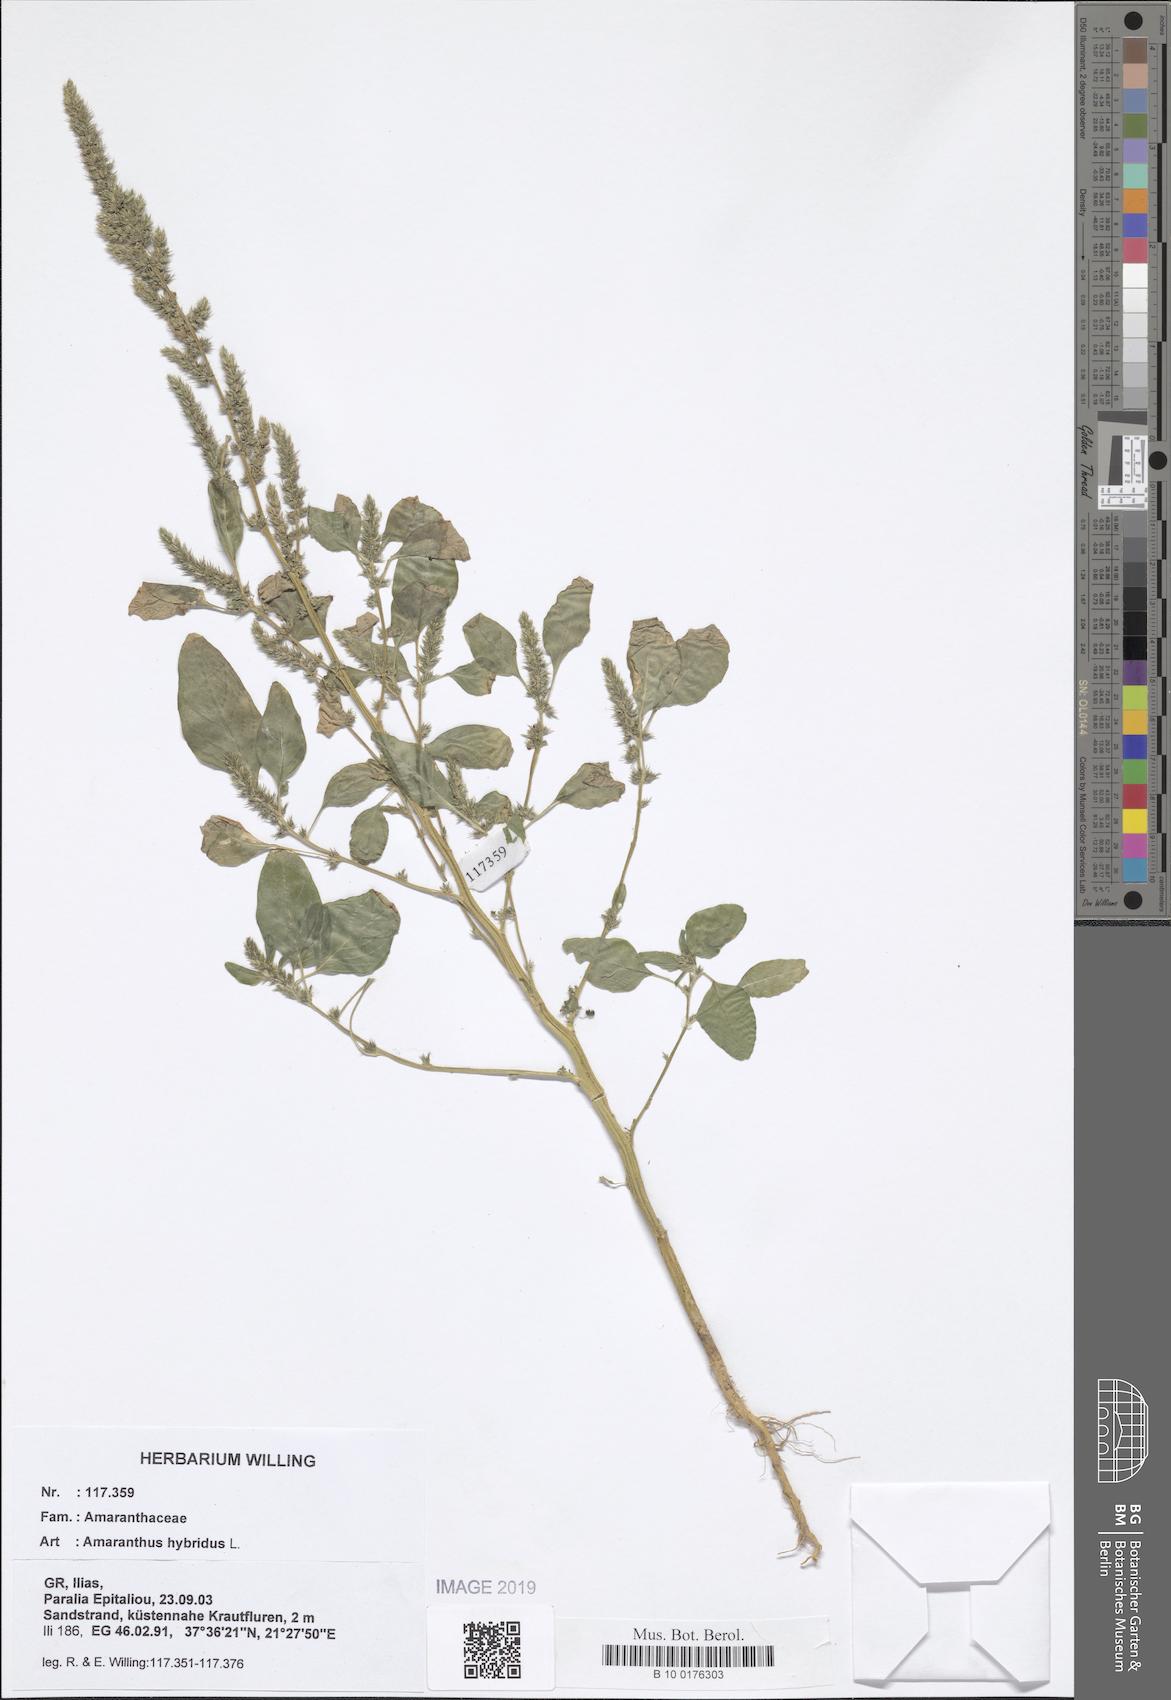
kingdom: Plantae
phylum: Tracheophyta
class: Magnoliopsida
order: Caryophyllales
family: Amaranthaceae
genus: Amaranthus
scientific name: Amaranthus hybridus
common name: Green amaranth
